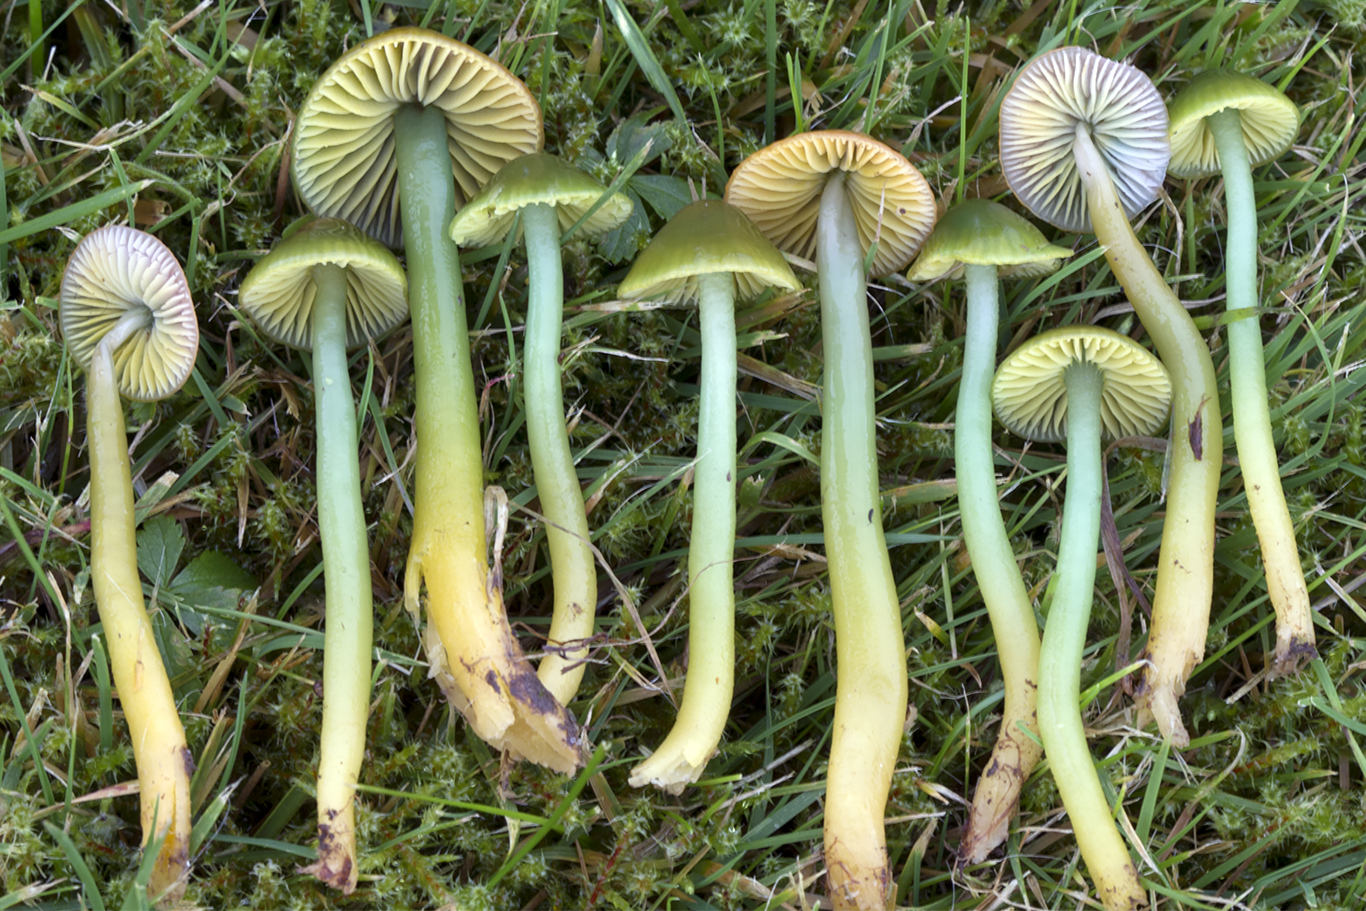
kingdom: Fungi
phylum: Basidiomycota
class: Agaricomycetes
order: Agaricales
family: Hygrophoraceae
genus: Gliophorus
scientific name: Gliophorus psittacinus
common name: papegøje-vokshat
